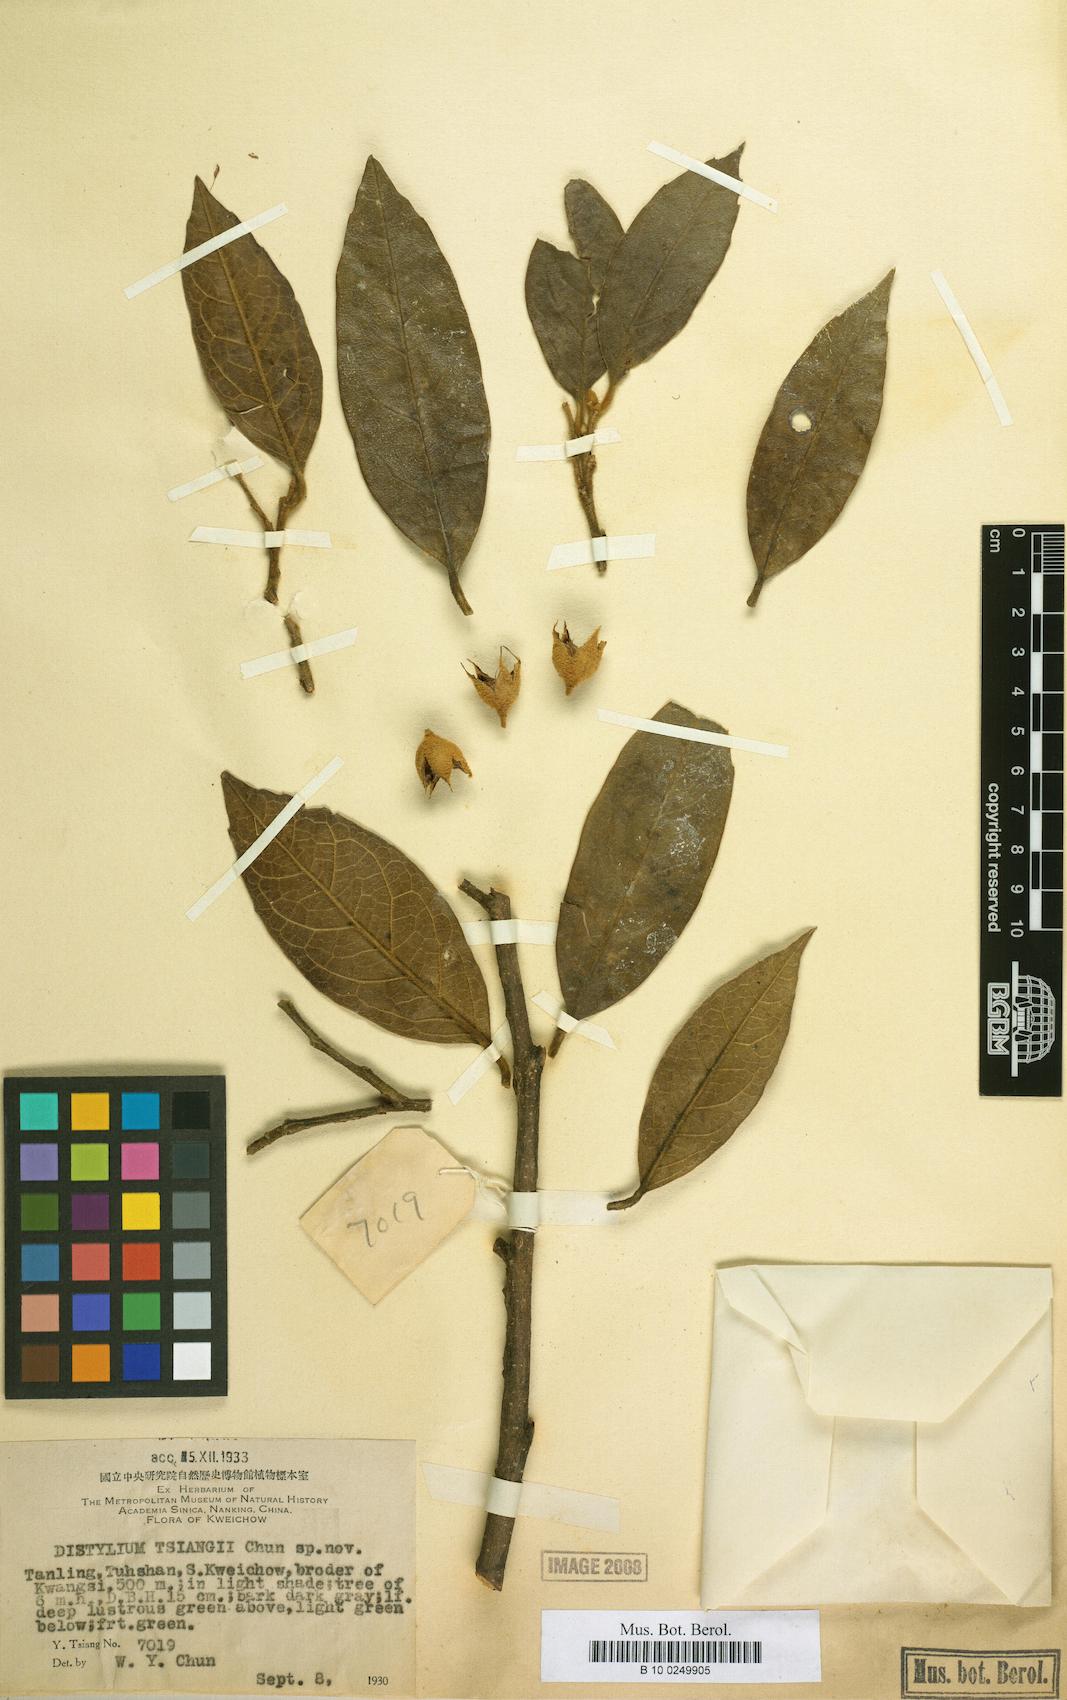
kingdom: Plantae
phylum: Tracheophyta
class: Magnoliopsida
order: Saxifragales
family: Hamamelidaceae
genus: Distylium
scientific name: Distylium tsiangii
